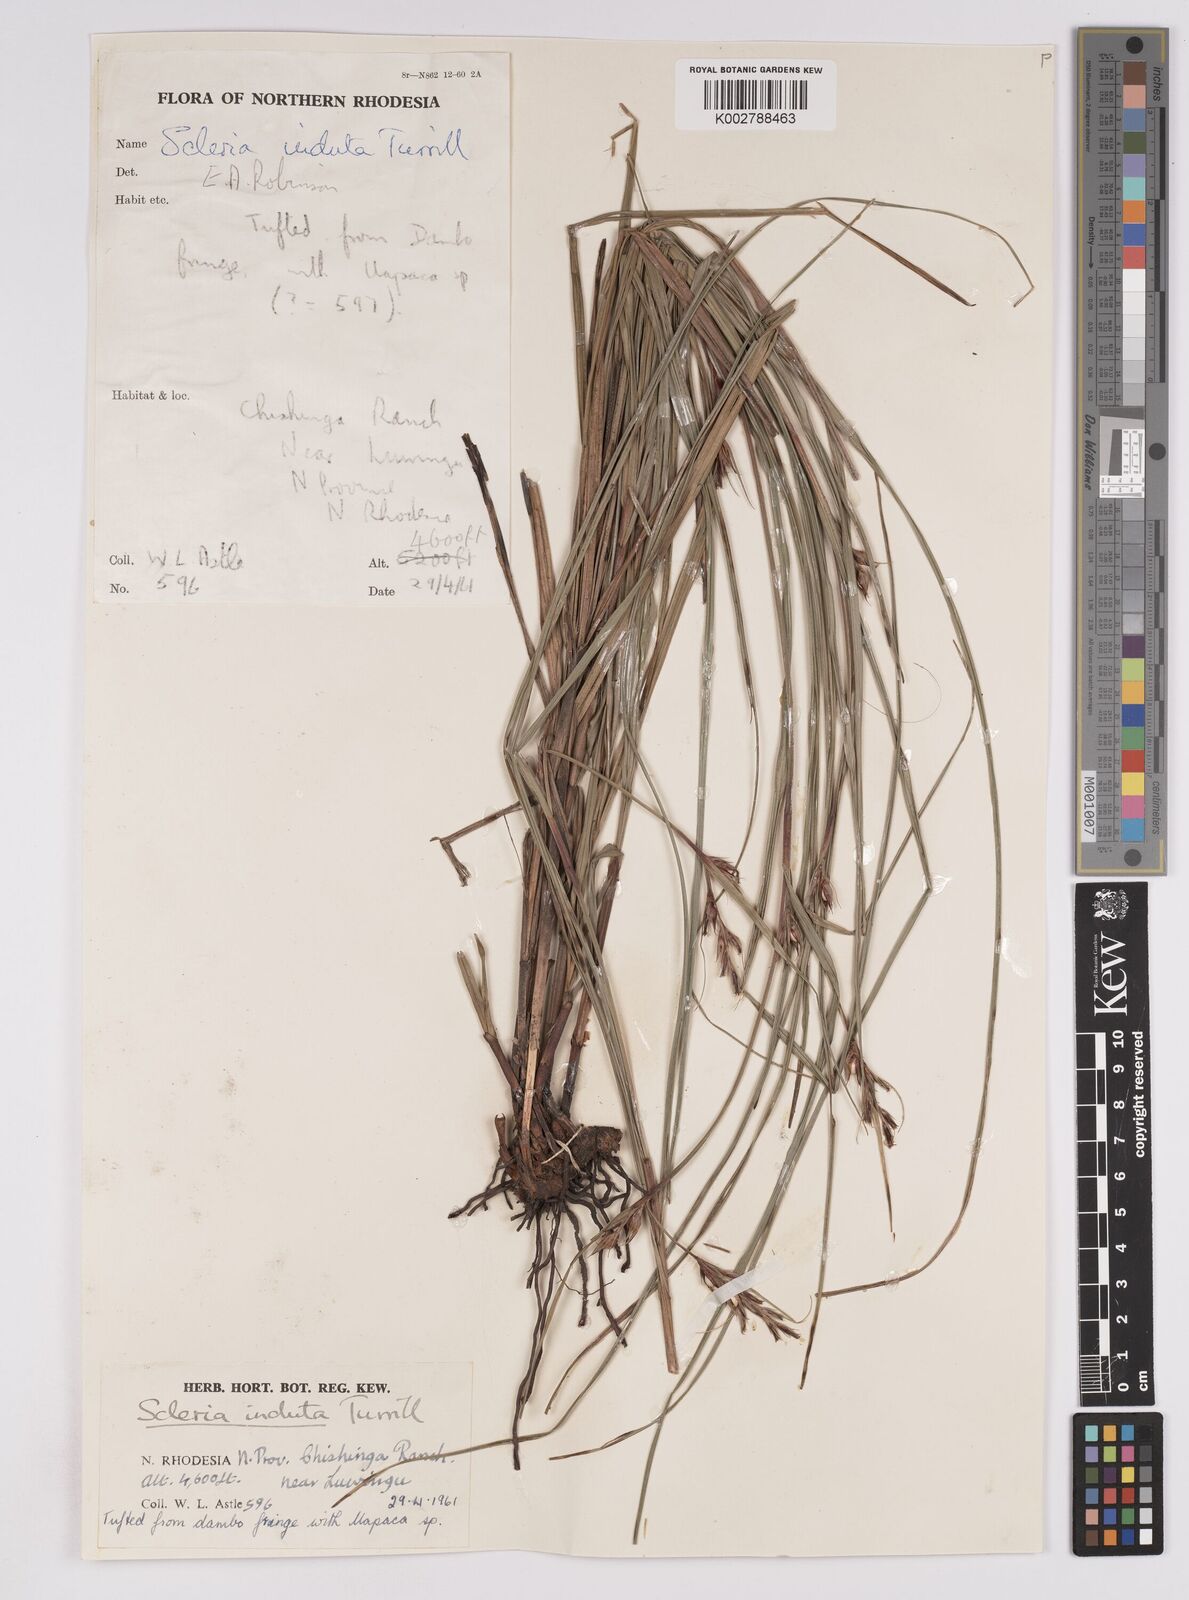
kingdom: Plantae
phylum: Tracheophyta
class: Liliopsida
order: Poales
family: Cyperaceae
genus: Scleria
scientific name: Scleria induta
